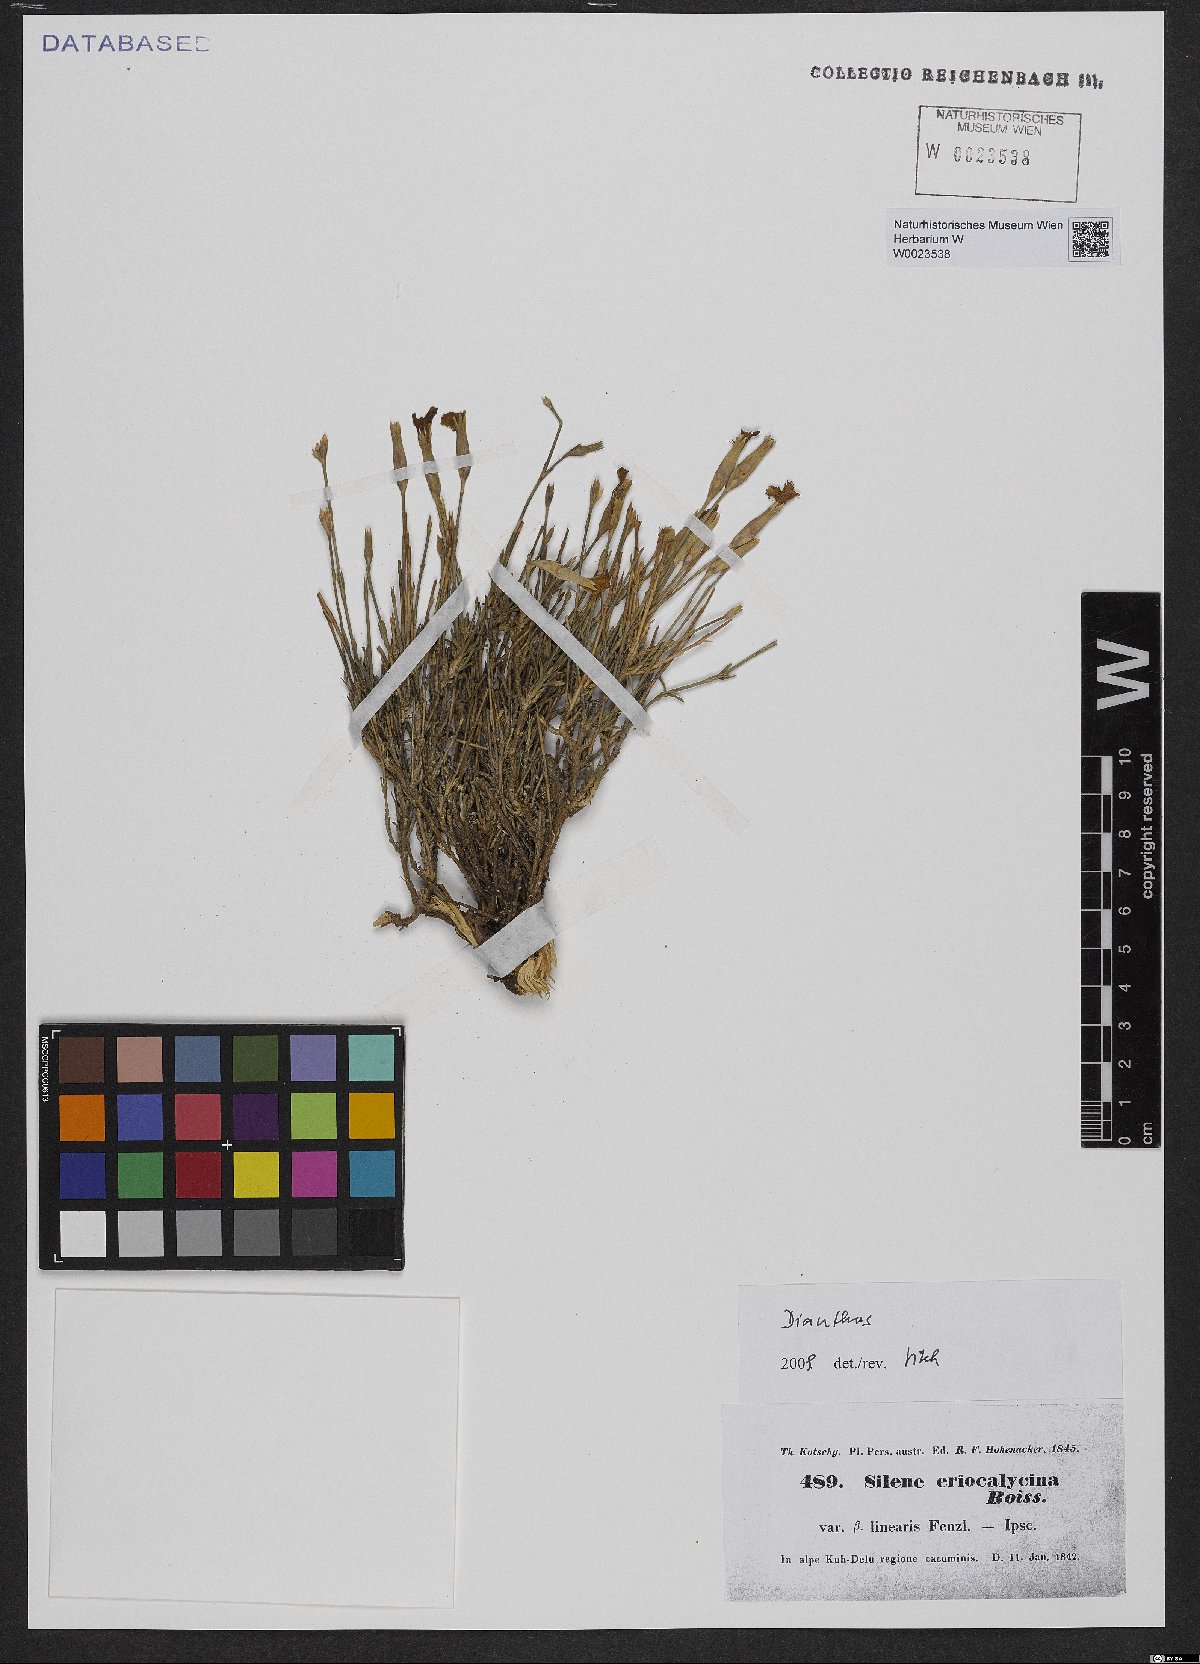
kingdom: Plantae
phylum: Tracheophyta
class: Magnoliopsida
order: Caryophyllales
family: Caryophyllaceae
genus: Dianthus
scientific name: Dianthus
